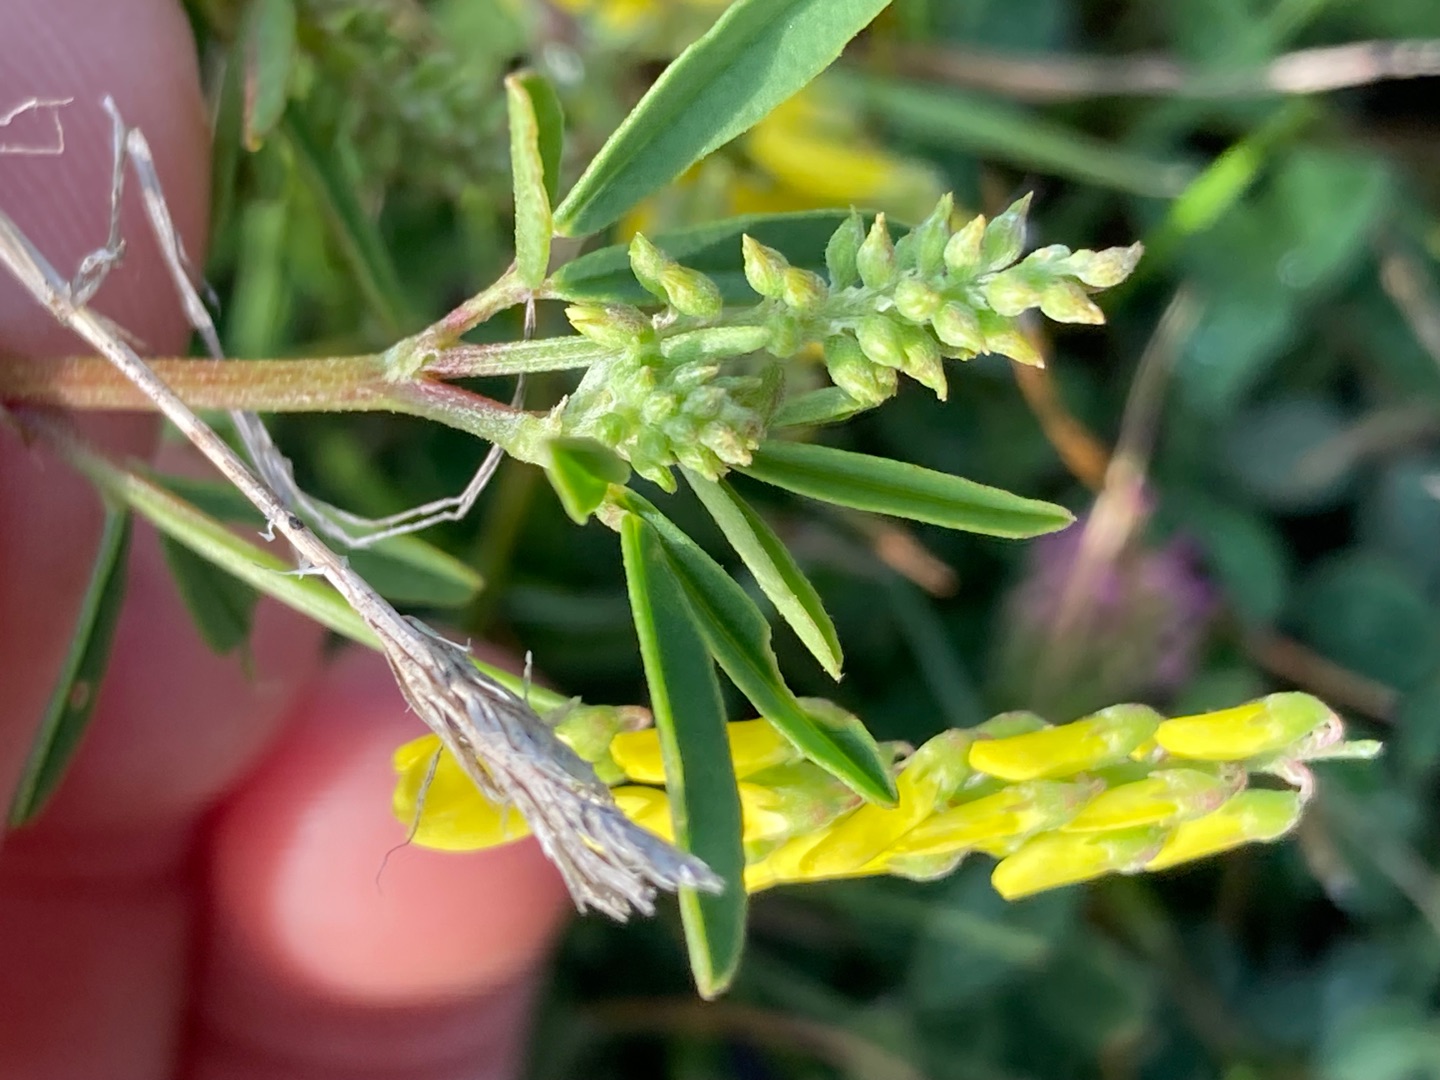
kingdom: Plantae
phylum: Tracheophyta
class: Magnoliopsida
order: Fabales
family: Fabaceae
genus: Melilotus
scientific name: Melilotus officinalis
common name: Mark-stenkløver
